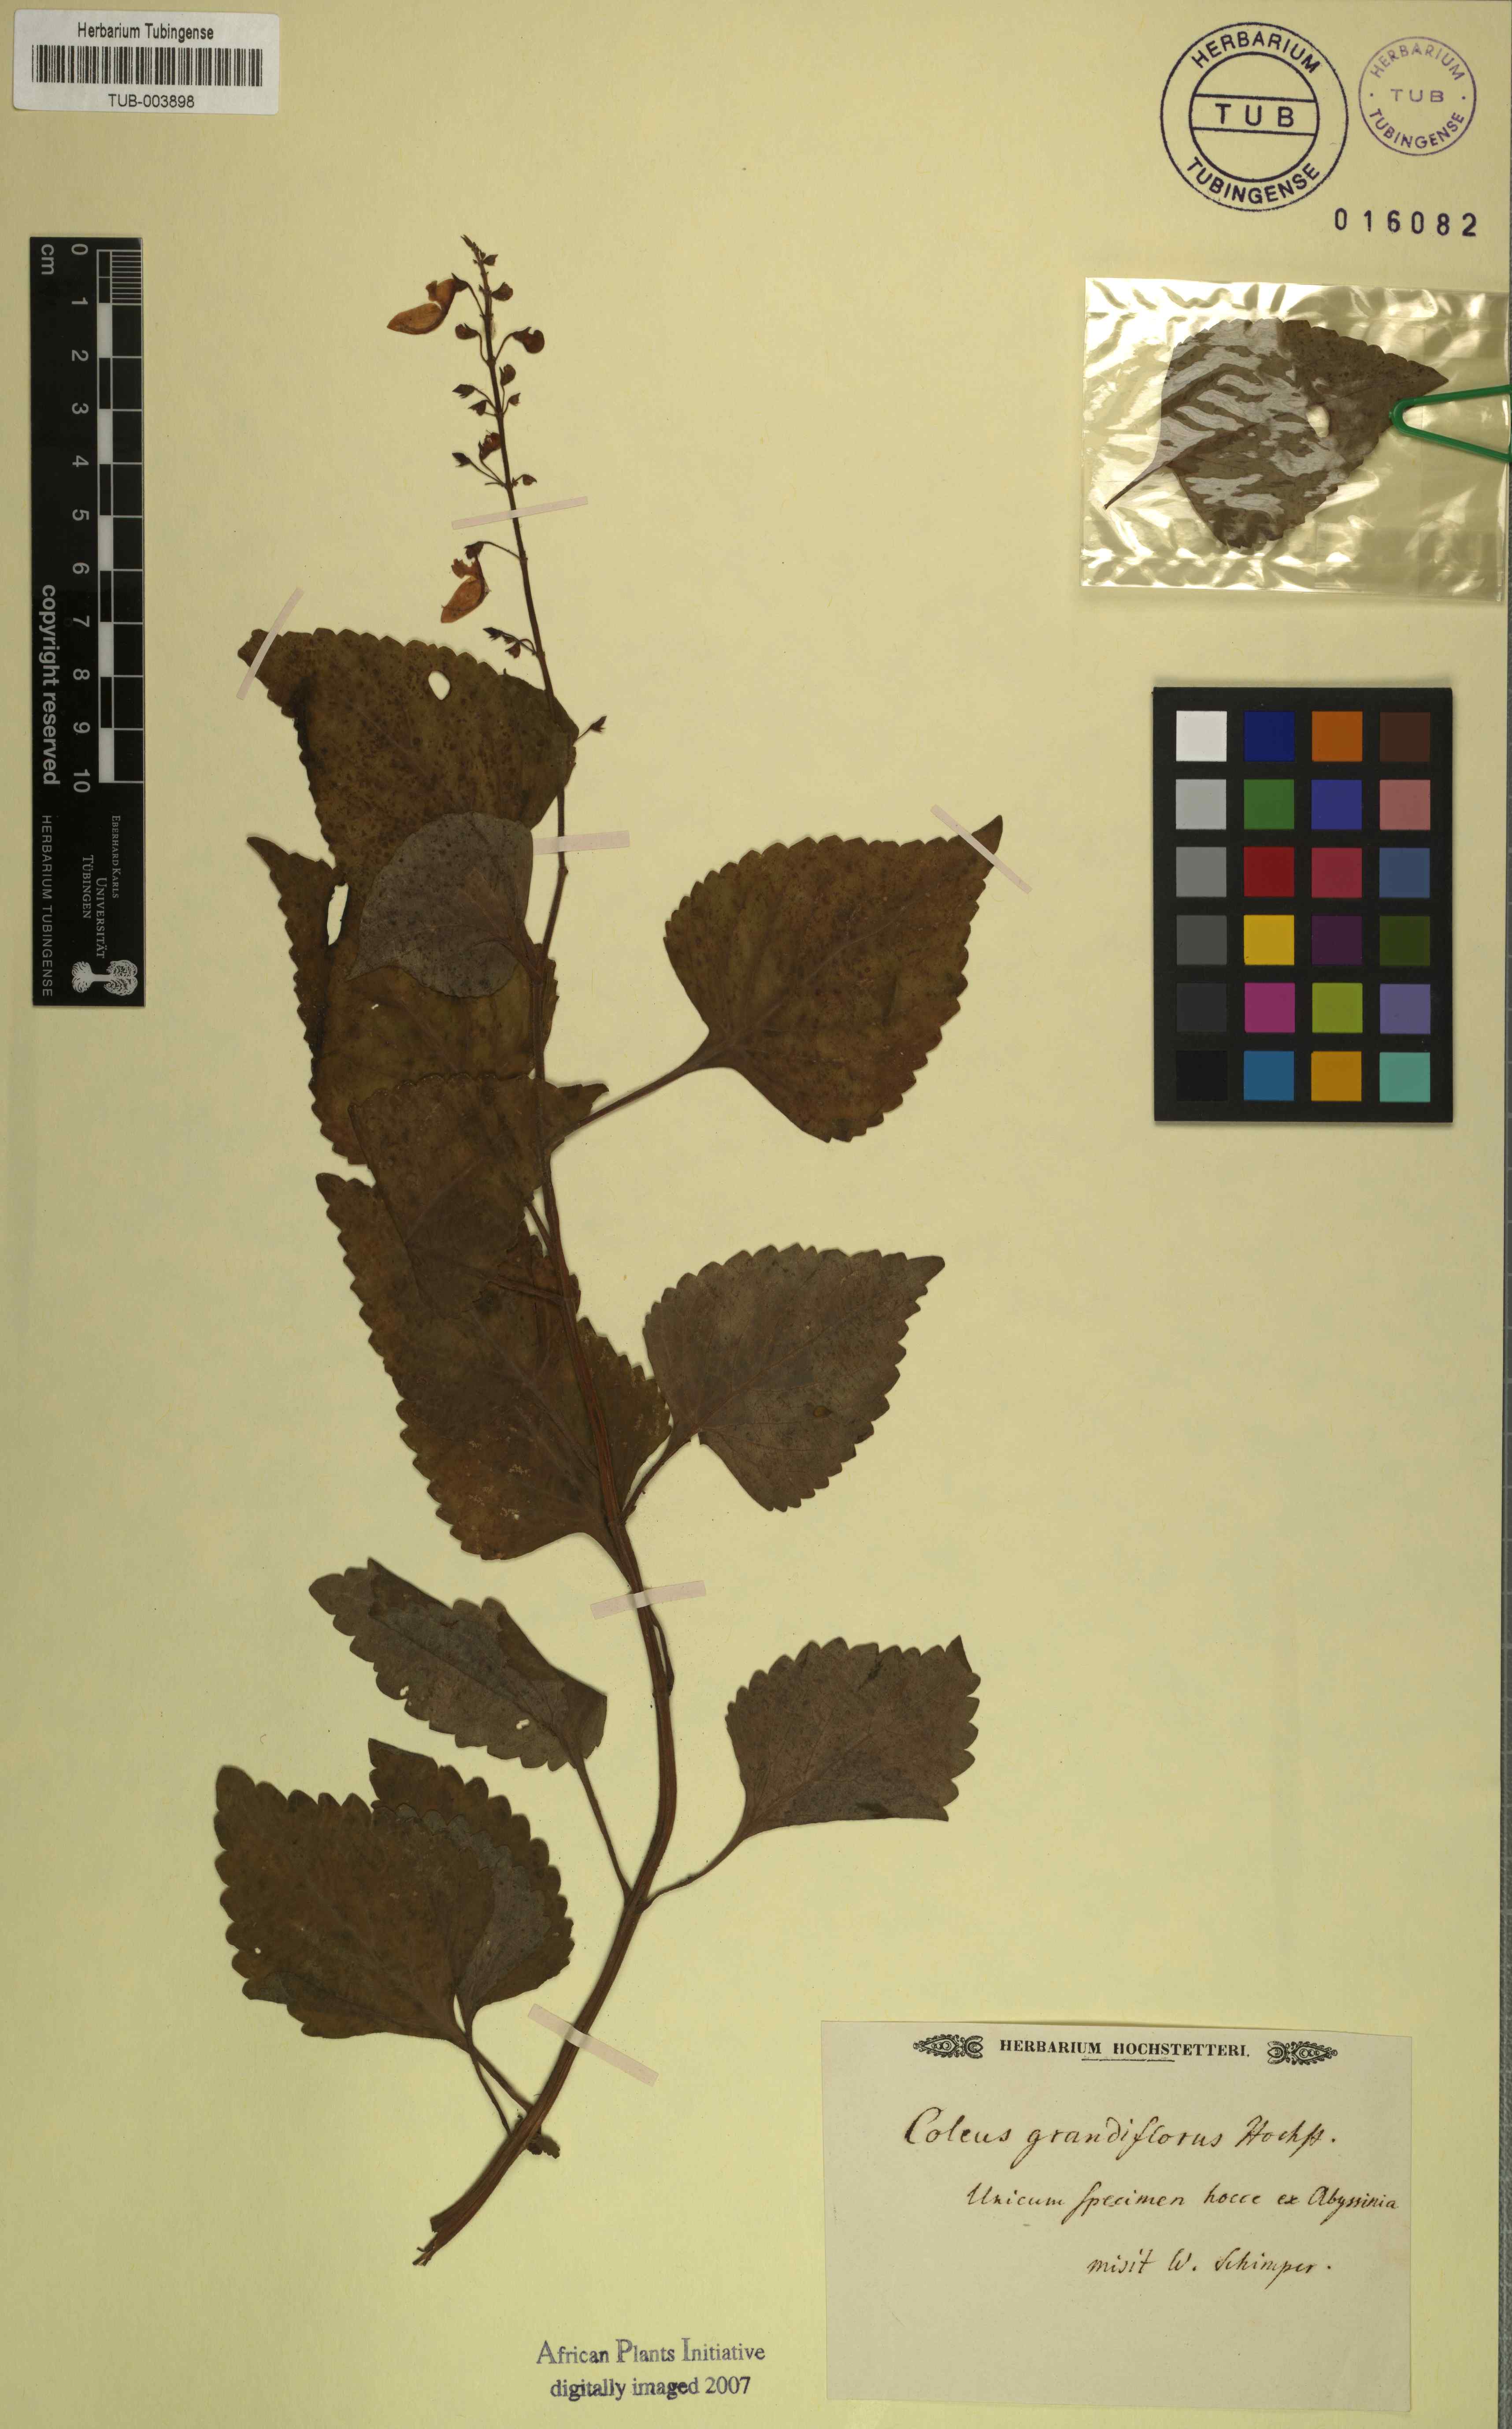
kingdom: Plantae
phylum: Tracheophyta
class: Magnoliopsida
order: Lamiales
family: Lamiaceae
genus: Coleus
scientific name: Coleus
